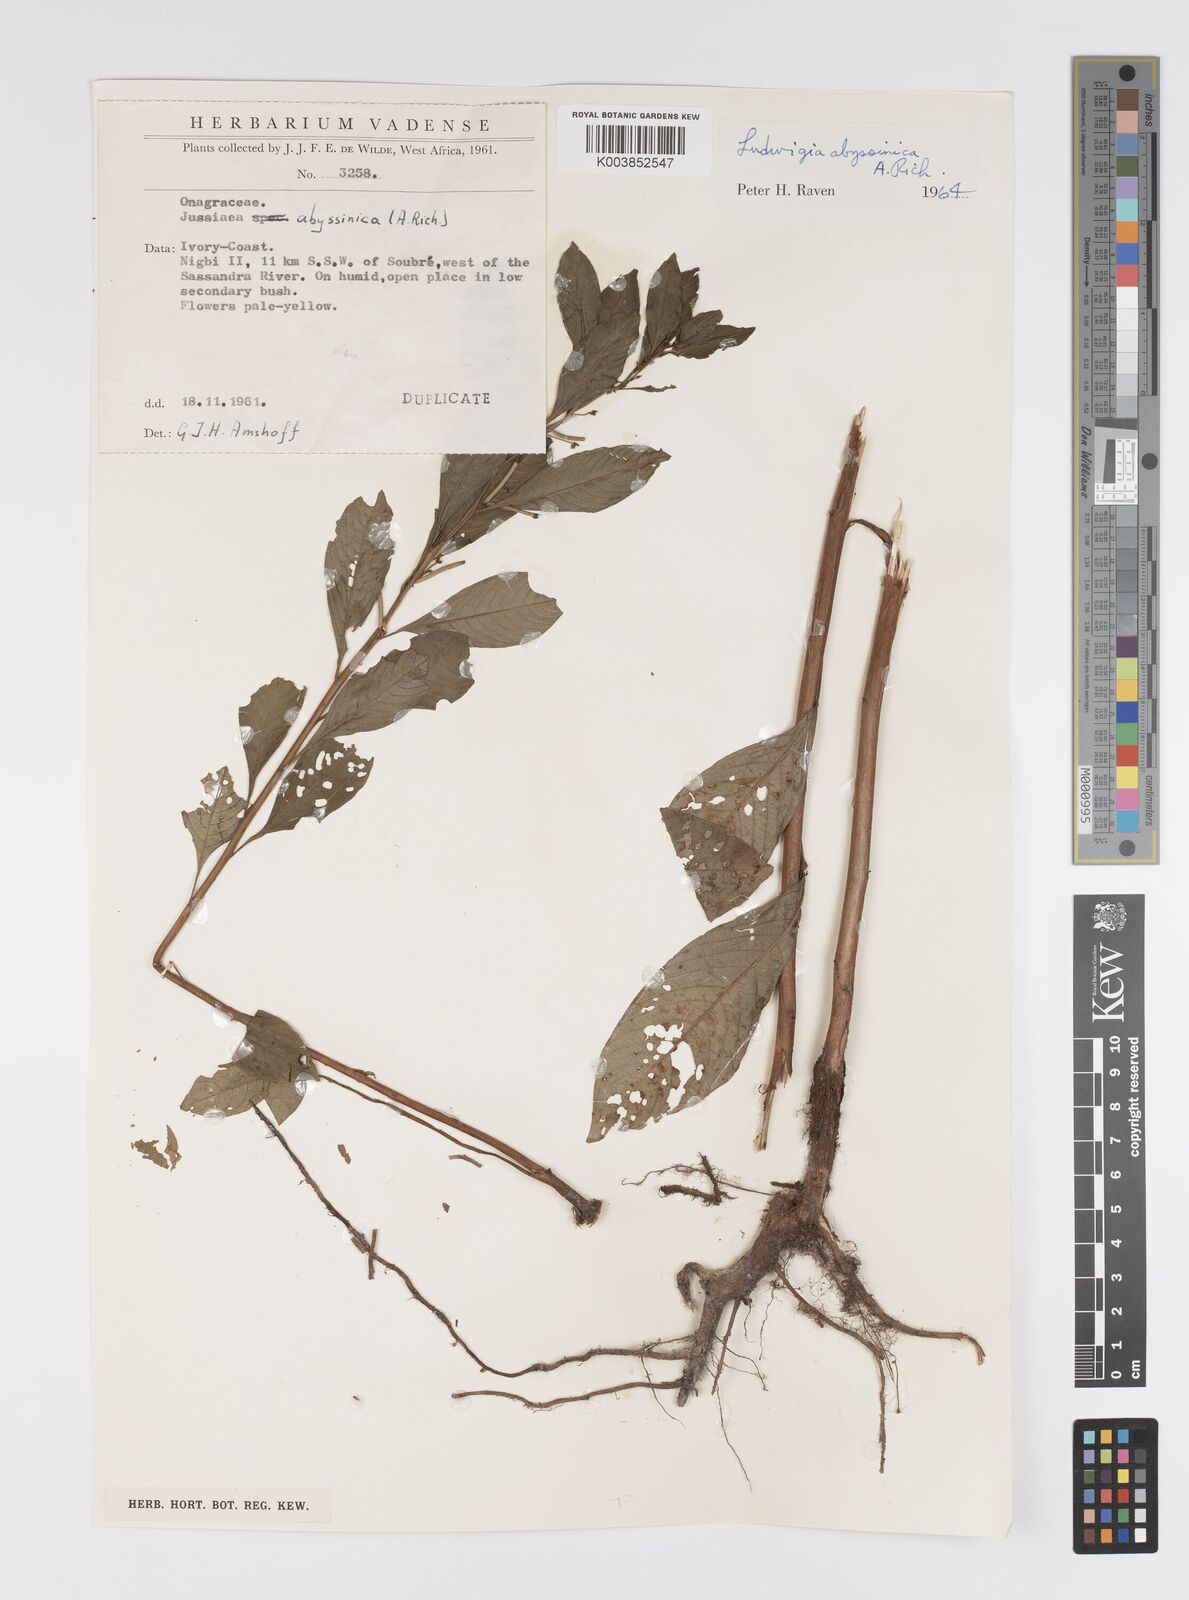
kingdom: Plantae
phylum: Tracheophyta
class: Magnoliopsida
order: Myrtales
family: Onagraceae
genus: Ludwigia
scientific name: Ludwigia abyssinica
